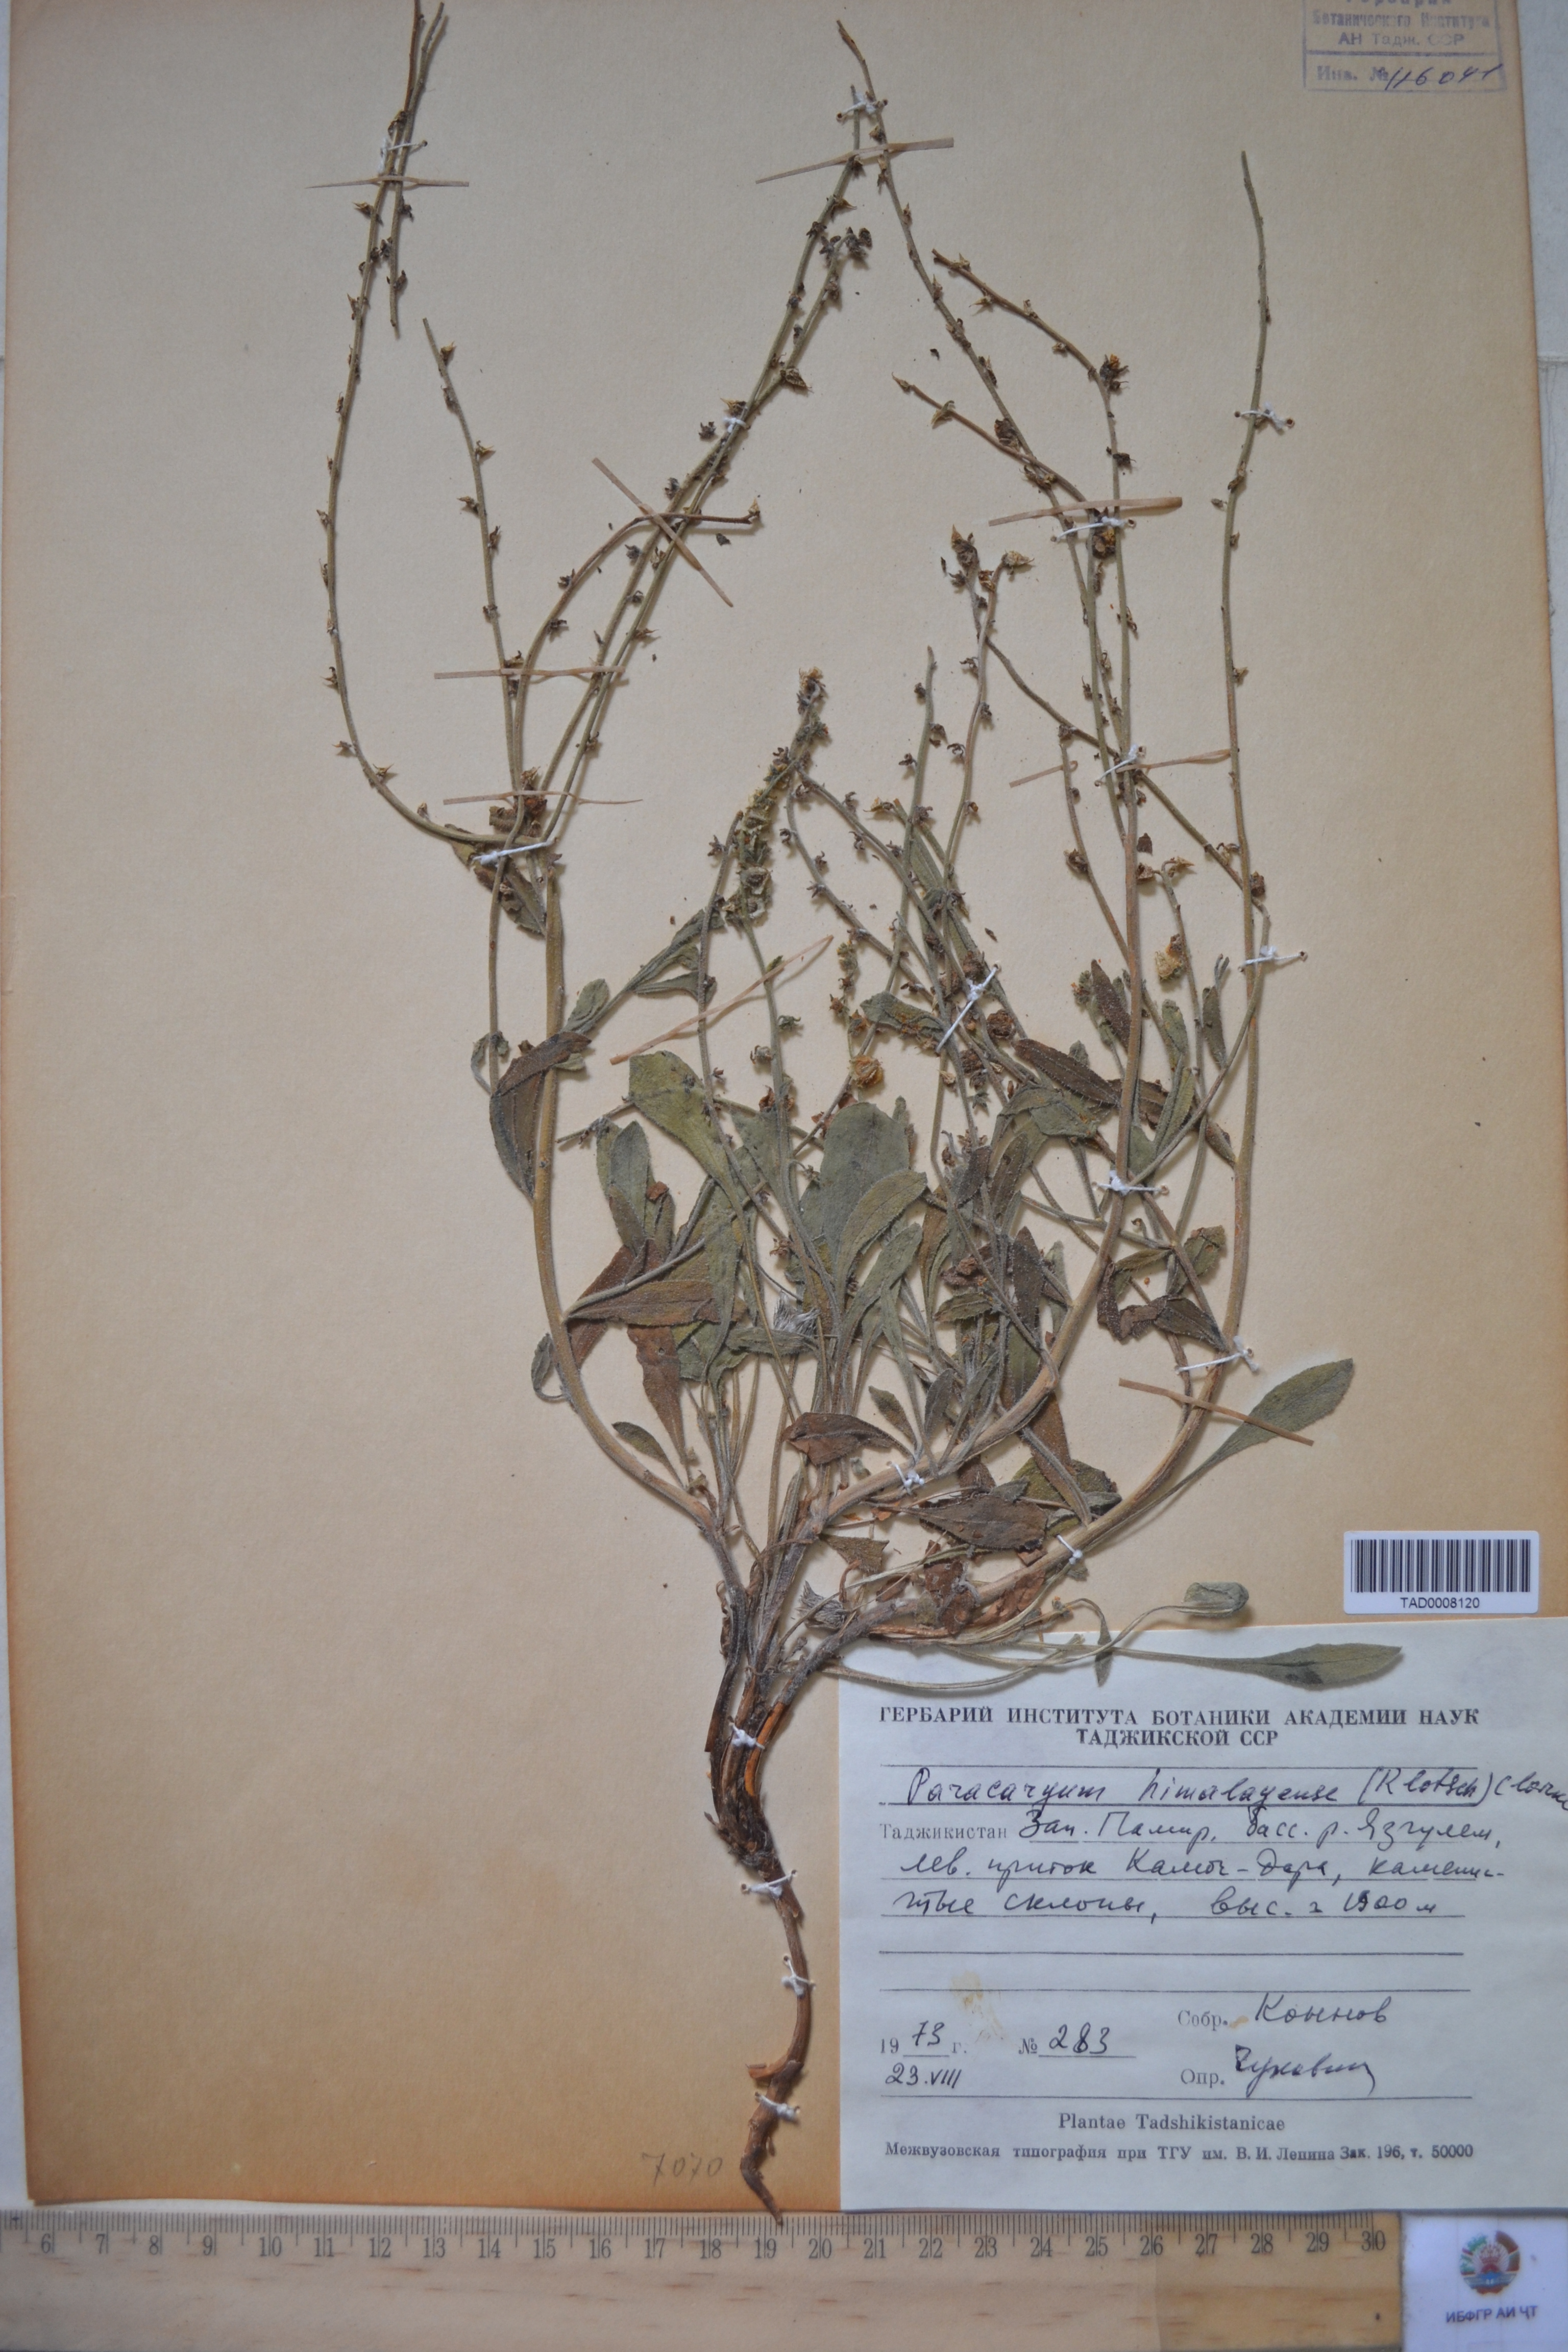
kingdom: Plantae
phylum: Tracheophyta
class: Magnoliopsida
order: Boraginales
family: Boraginaceae
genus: Paracaryum
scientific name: Paracaryum himalayense
